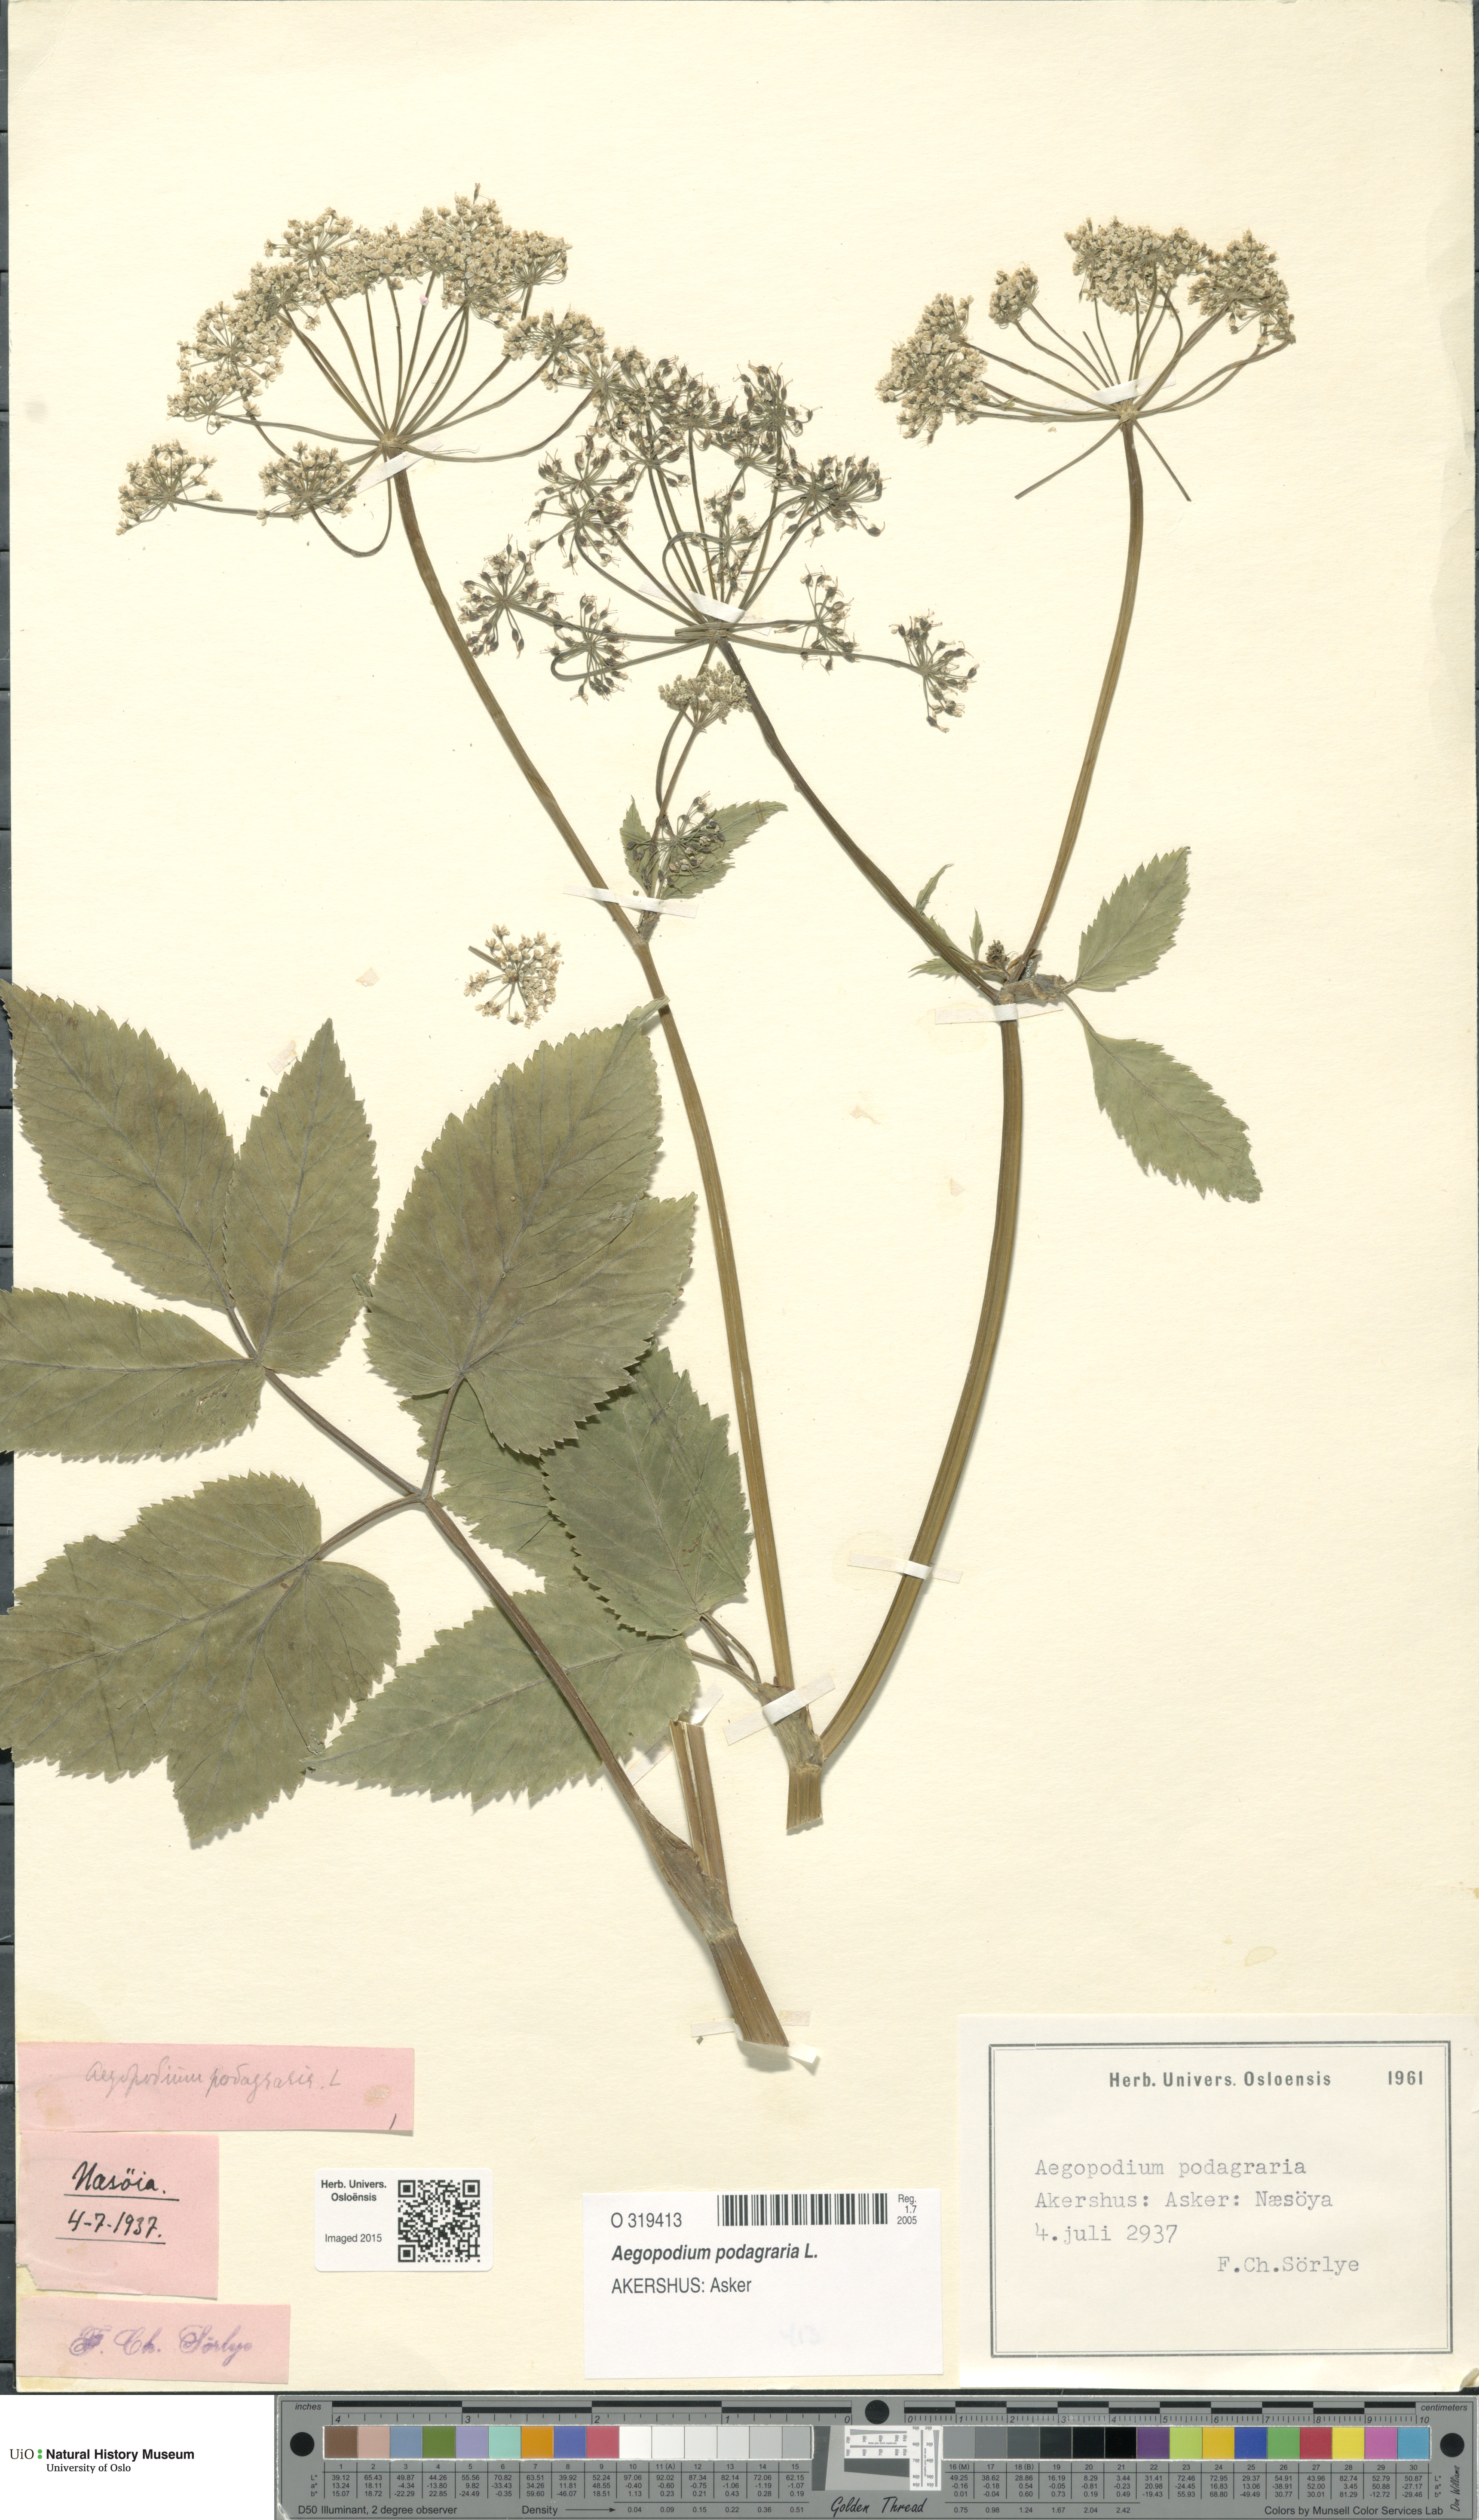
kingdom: Plantae
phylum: Tracheophyta
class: Magnoliopsida
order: Apiales
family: Apiaceae
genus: Aegopodium
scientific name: Aegopodium podagraria
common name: Ground-elder
